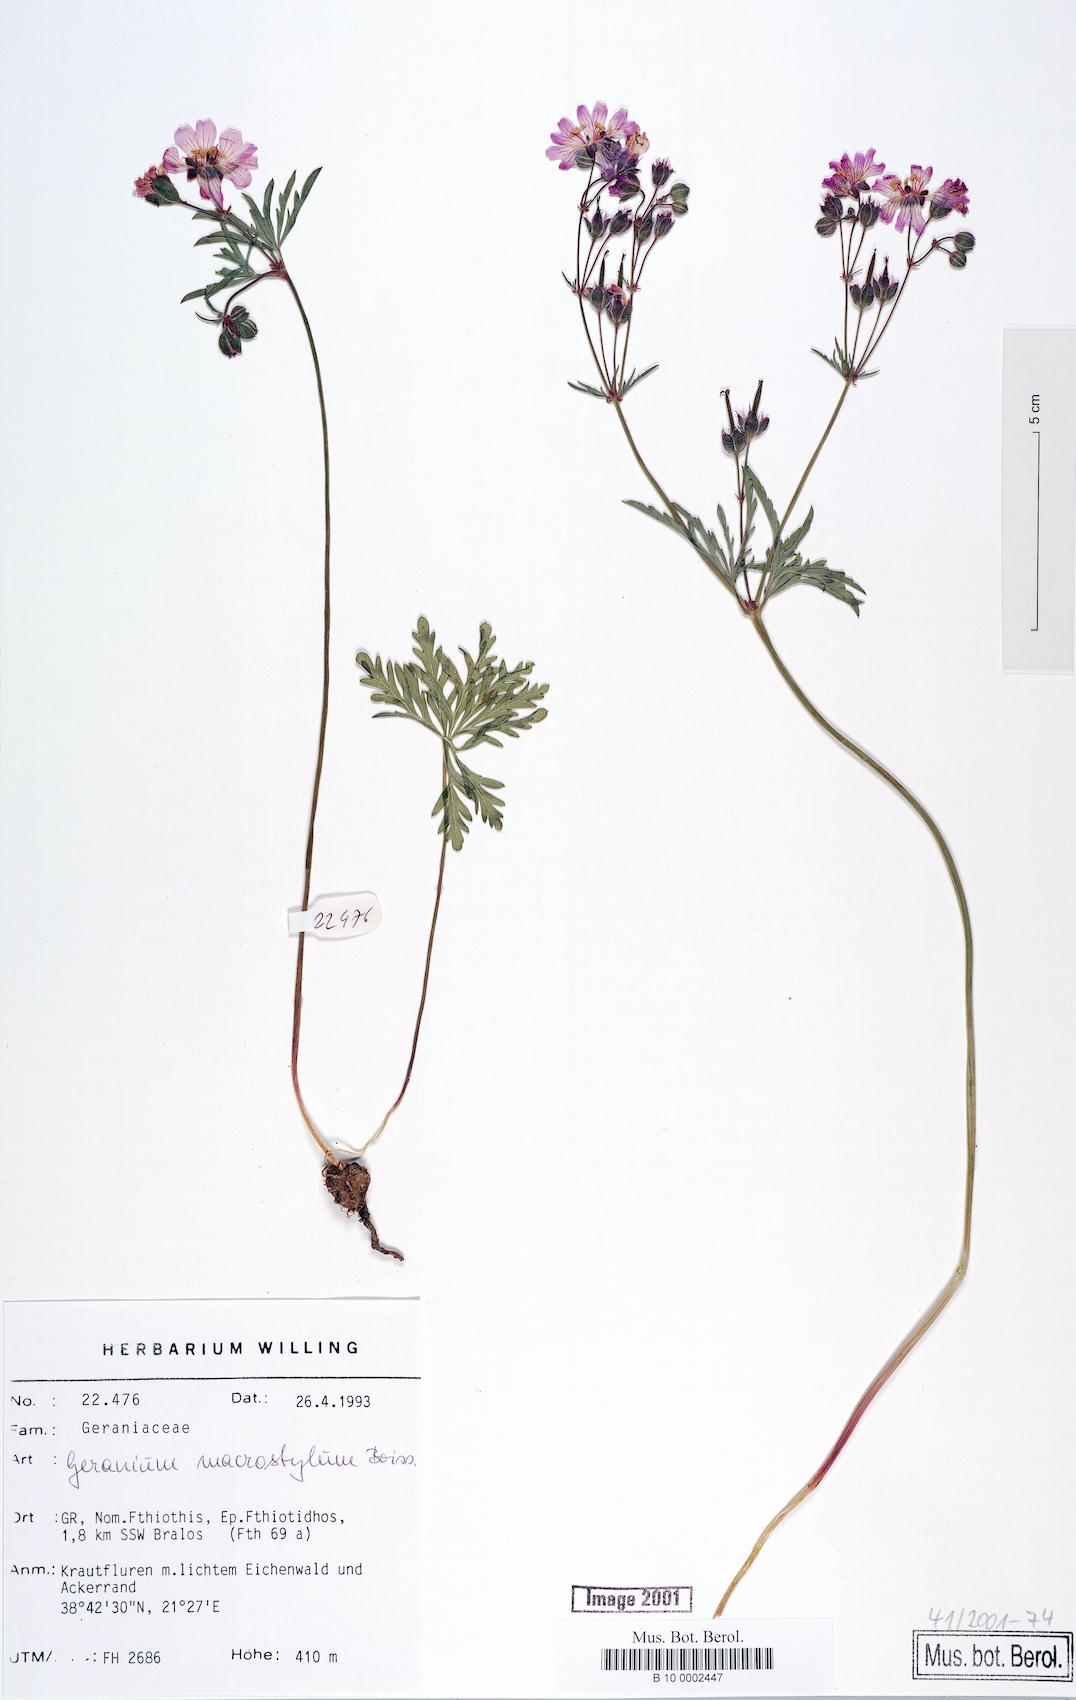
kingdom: Plantae
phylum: Tracheophyta
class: Magnoliopsida
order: Geraniales
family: Geraniaceae
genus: Geranium
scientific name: Geranium macrostylum
